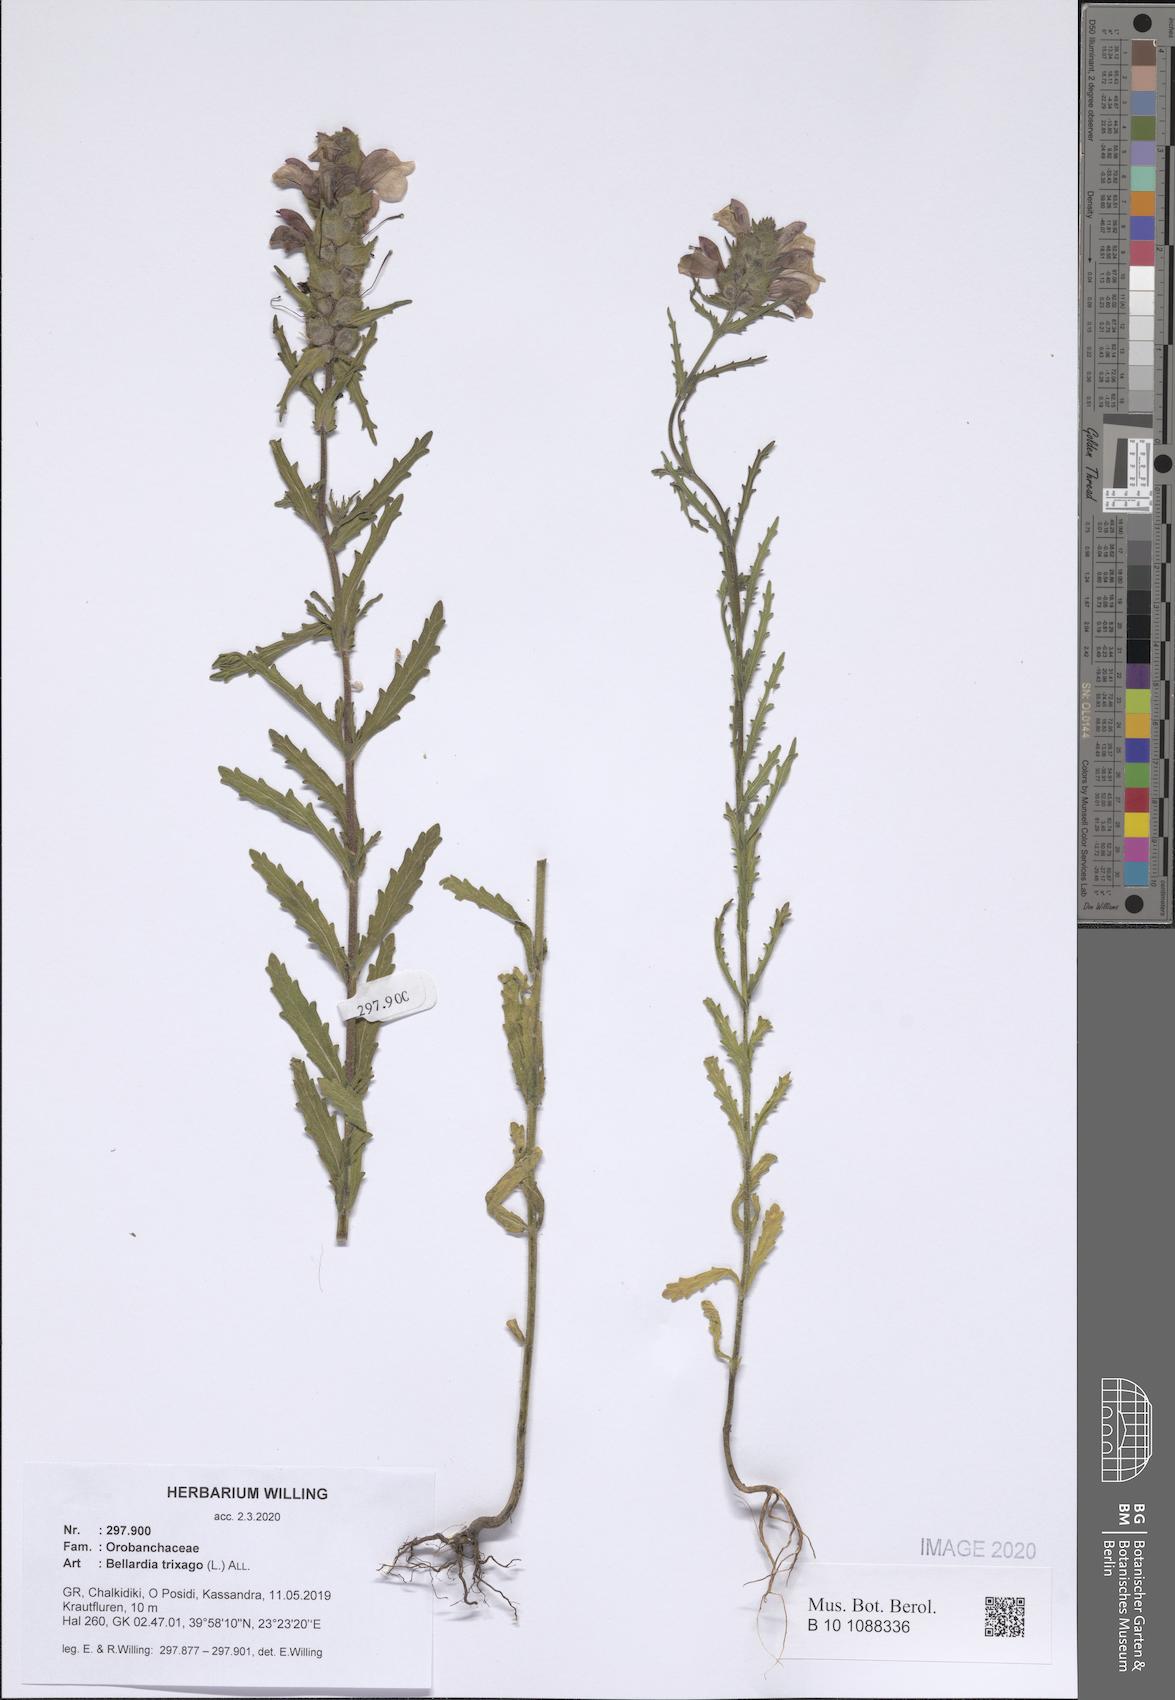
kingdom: Plantae
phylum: Tracheophyta
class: Magnoliopsida
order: Lamiales
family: Orobanchaceae
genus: Bellardia
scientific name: Bellardia trixago
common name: Mediterranean lineseed
